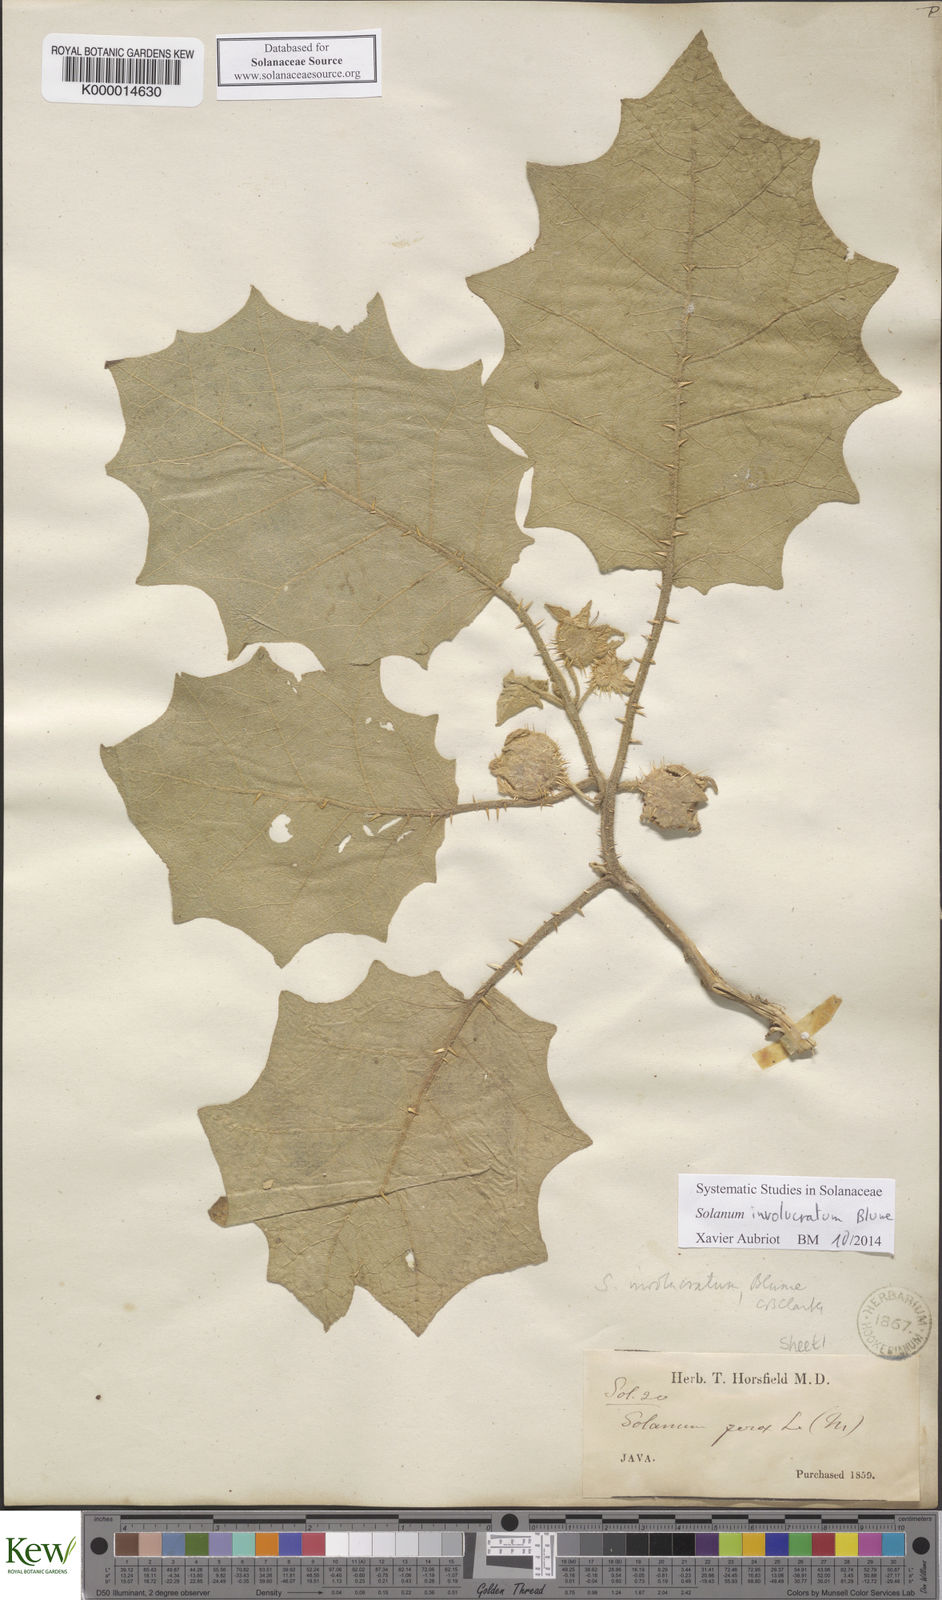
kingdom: Plantae
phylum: Tracheophyta
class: Magnoliopsida
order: Solanales
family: Solanaceae
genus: Solanum
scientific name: Solanum involucratum
